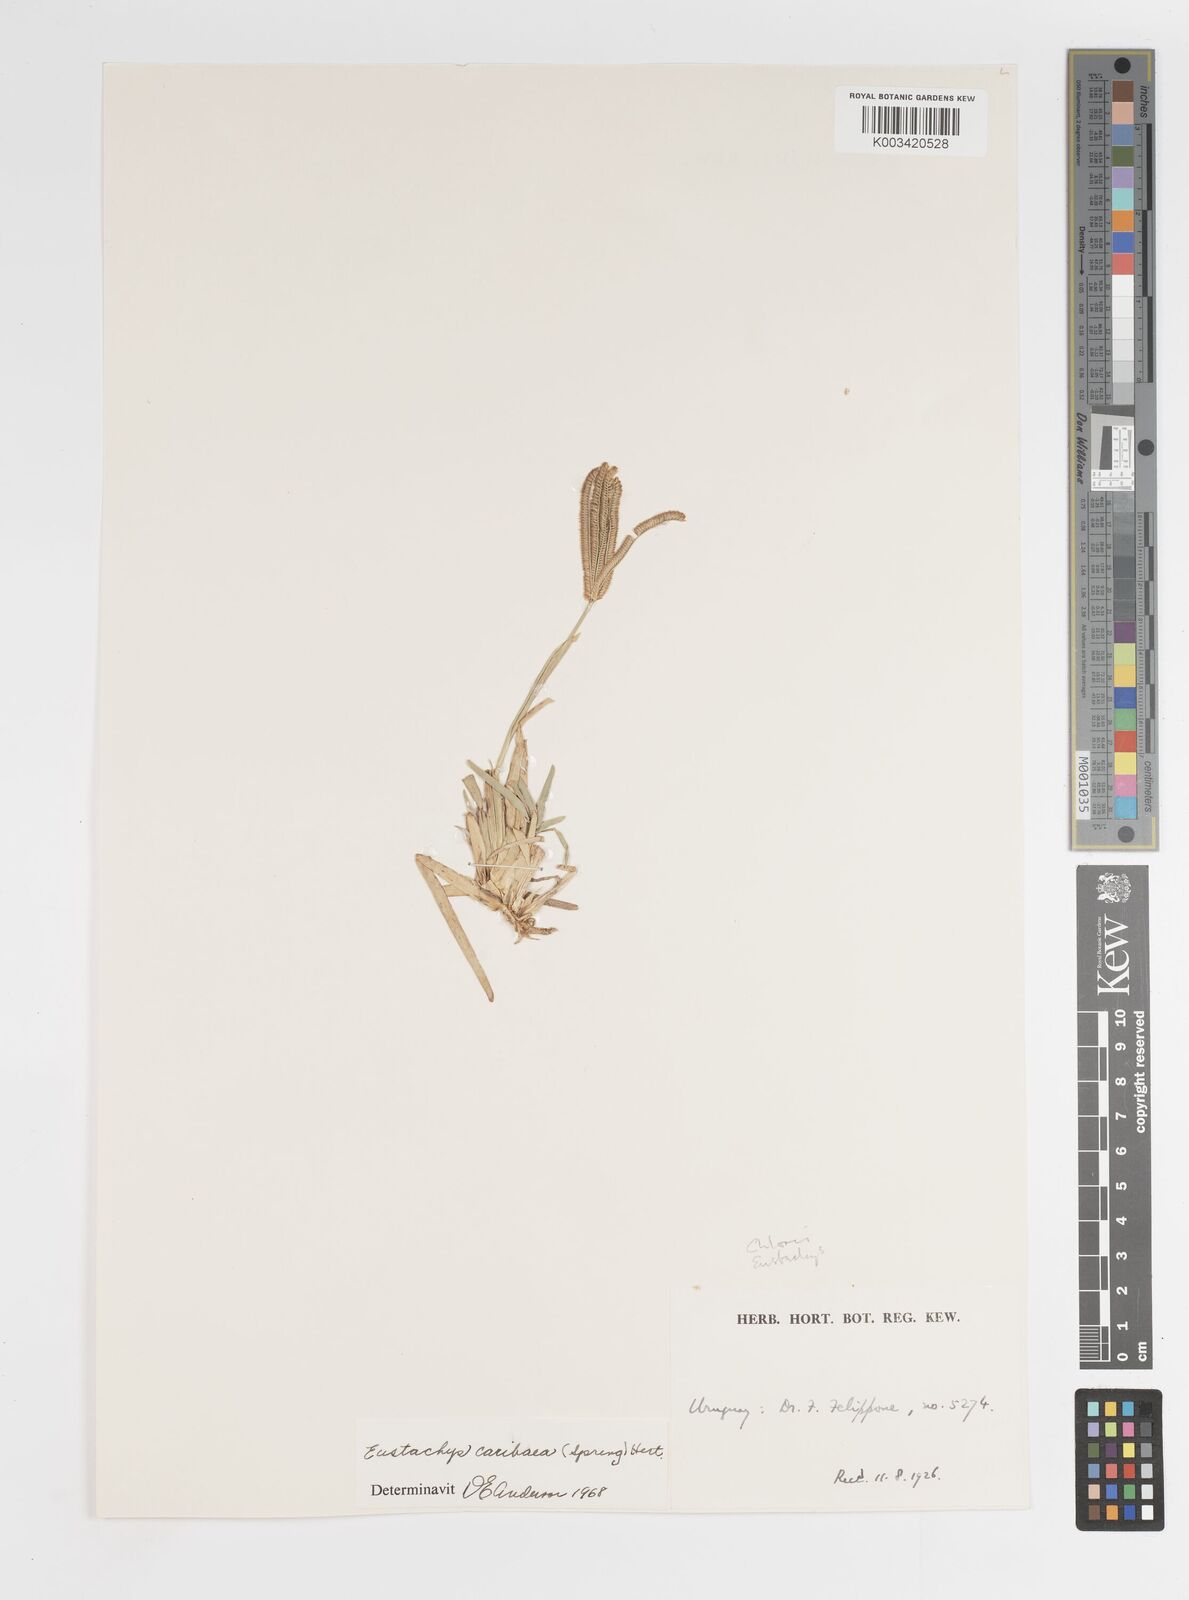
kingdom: Plantae
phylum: Tracheophyta
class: Liliopsida
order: Poales
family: Poaceae
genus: Eustachys
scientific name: Eustachys bahiensis
